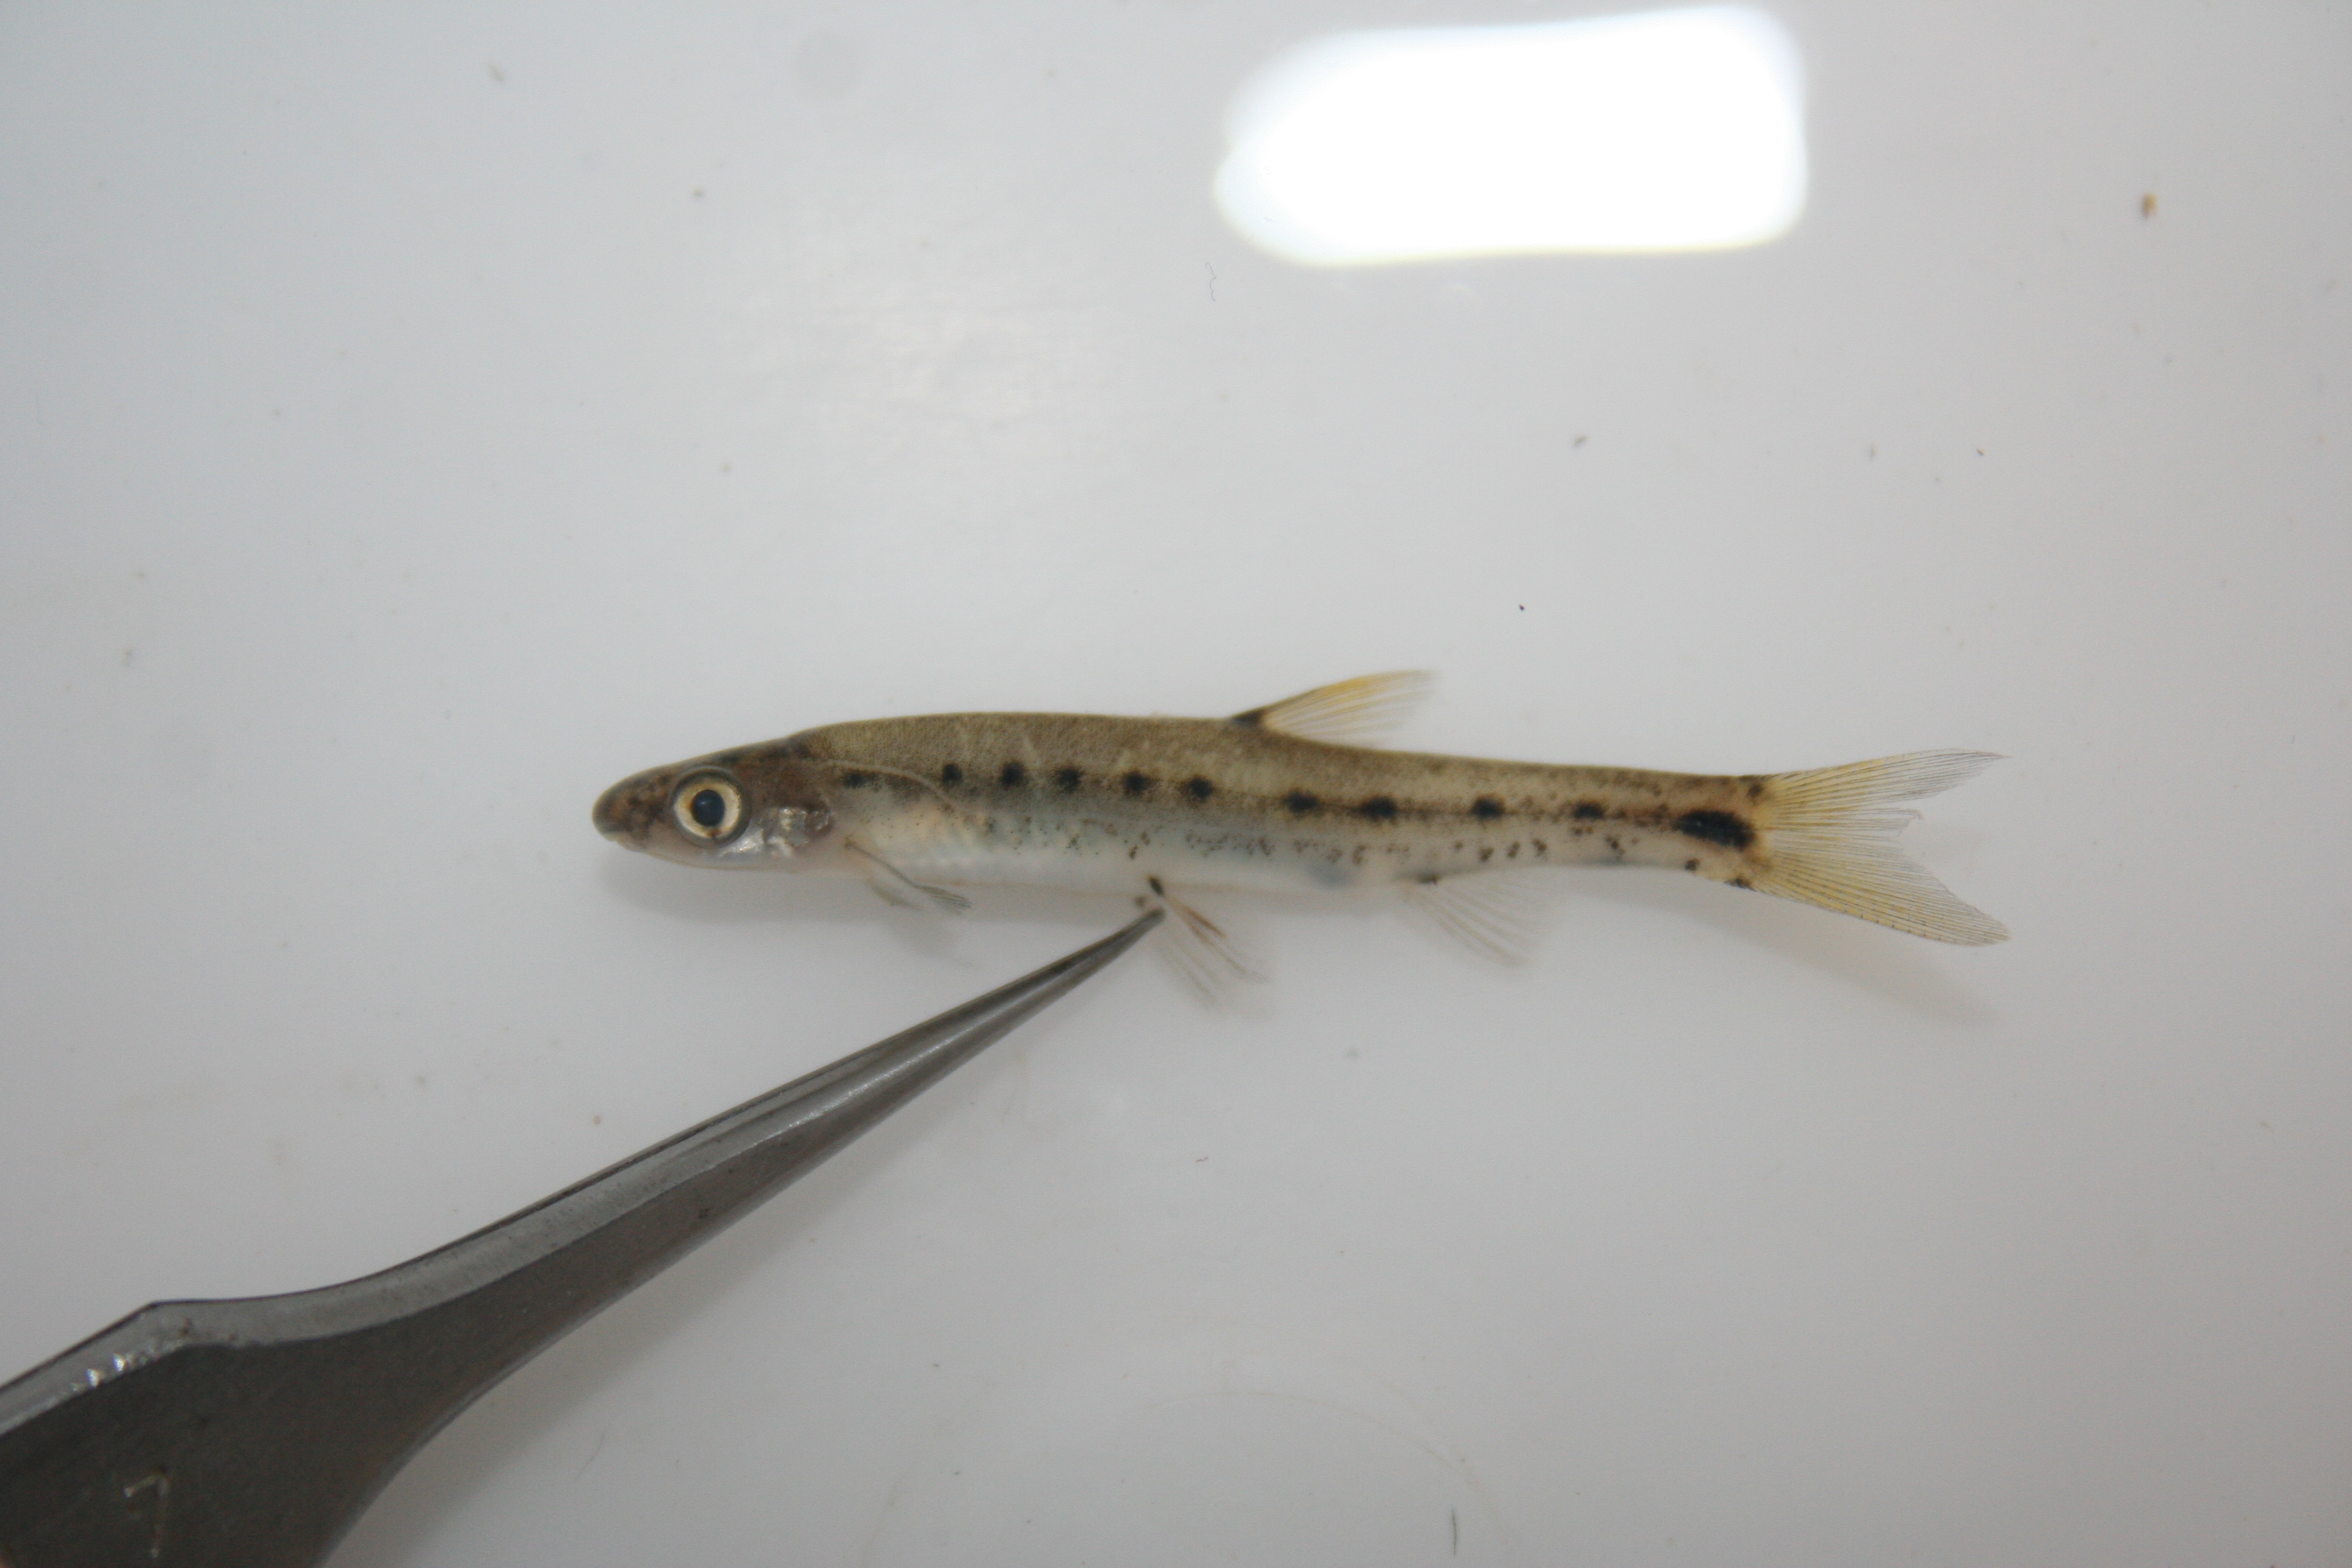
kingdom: Animalia
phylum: Chordata
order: Gonorynchiformes
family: Kneriidae
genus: Parakneria
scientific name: Parakneria marmorata
